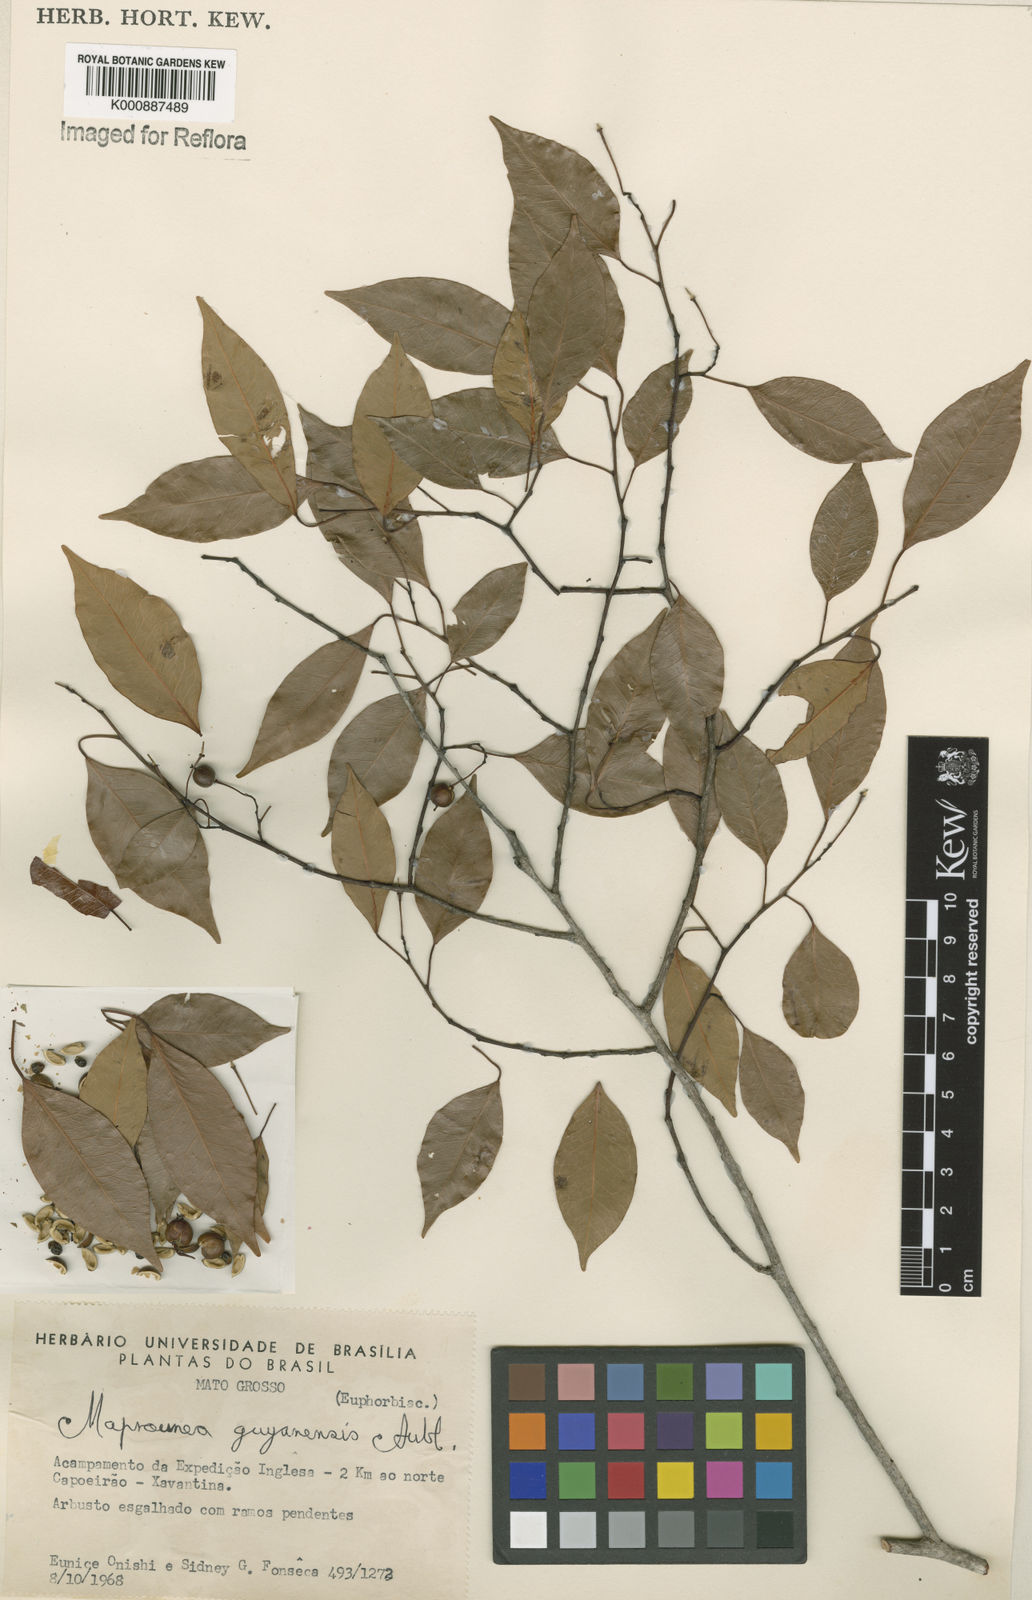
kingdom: Plantae
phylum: Tracheophyta
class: Magnoliopsida
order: Malpighiales
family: Euphorbiaceae
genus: Maprounea
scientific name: Maprounea guianensis
